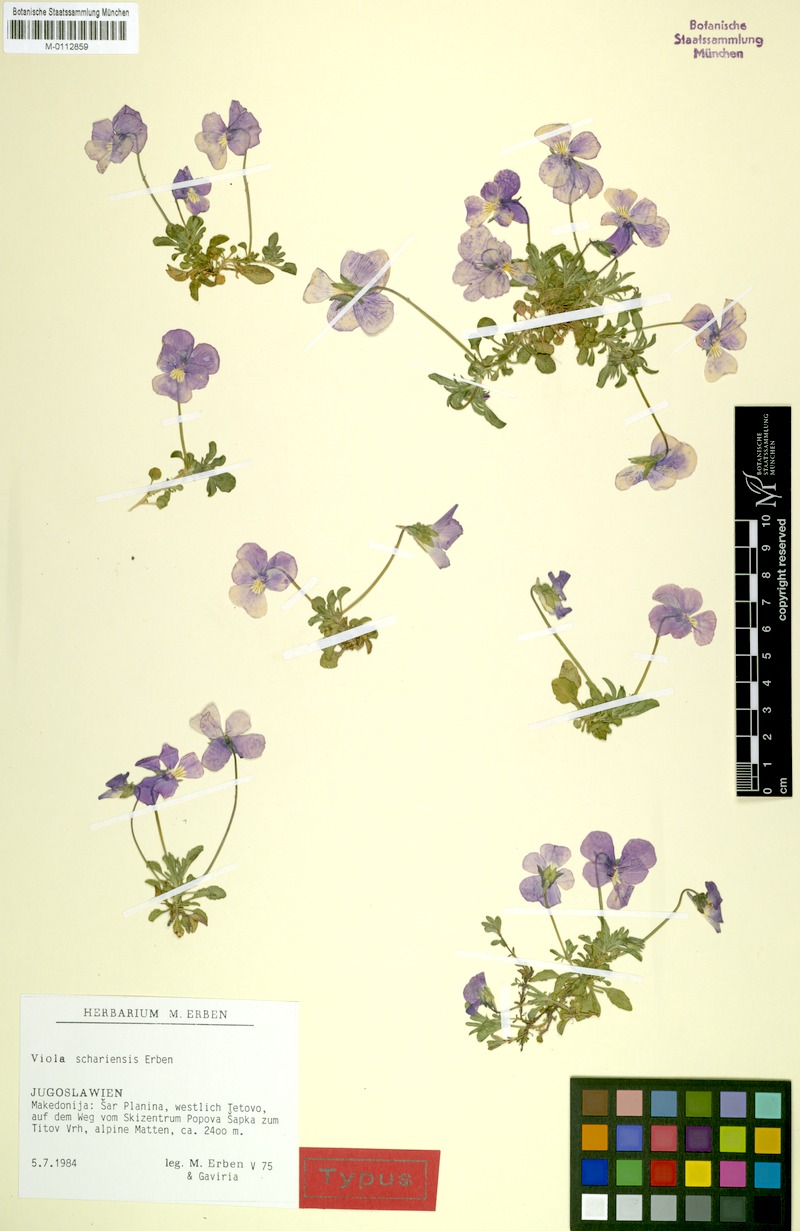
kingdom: Plantae
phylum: Tracheophyta
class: Magnoliopsida
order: Malpighiales
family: Violaceae
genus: Viola
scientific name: Viola schariensis
